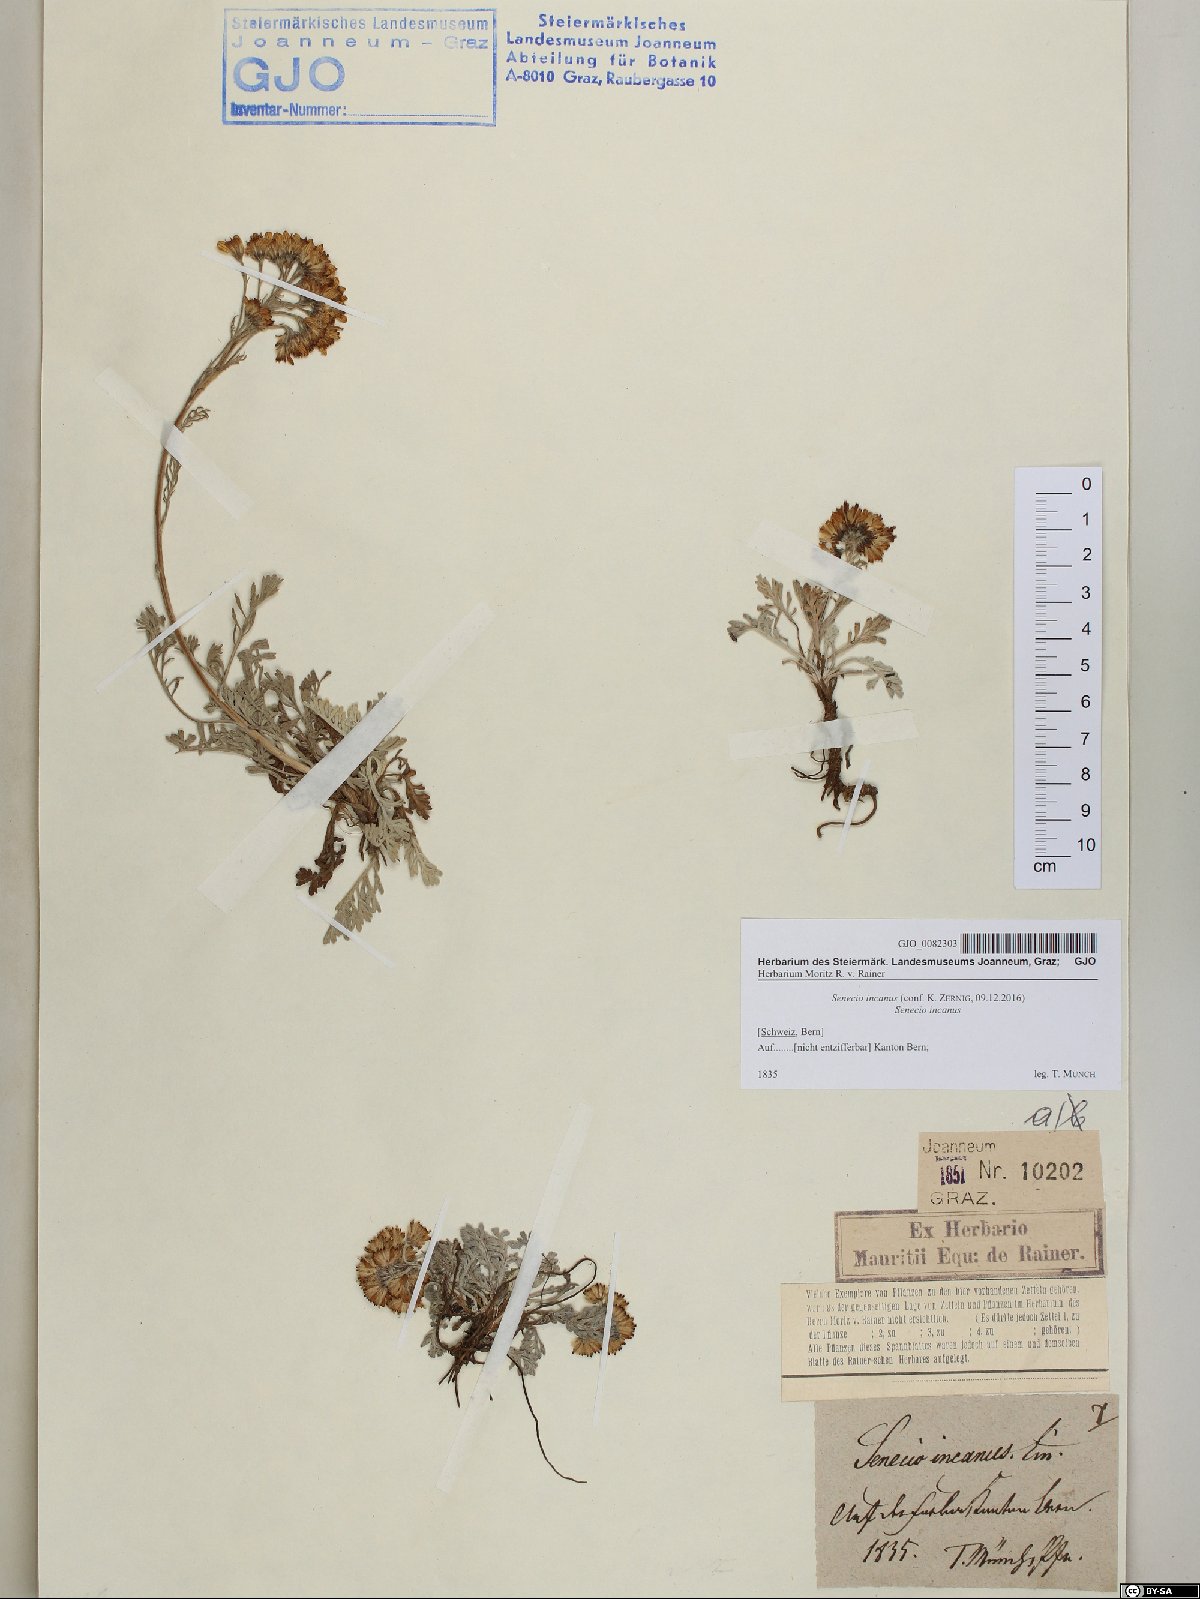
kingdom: Plantae
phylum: Tracheophyta
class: Magnoliopsida
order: Asterales
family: Asteraceae
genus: Jacobaea
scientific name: Jacobaea incana
